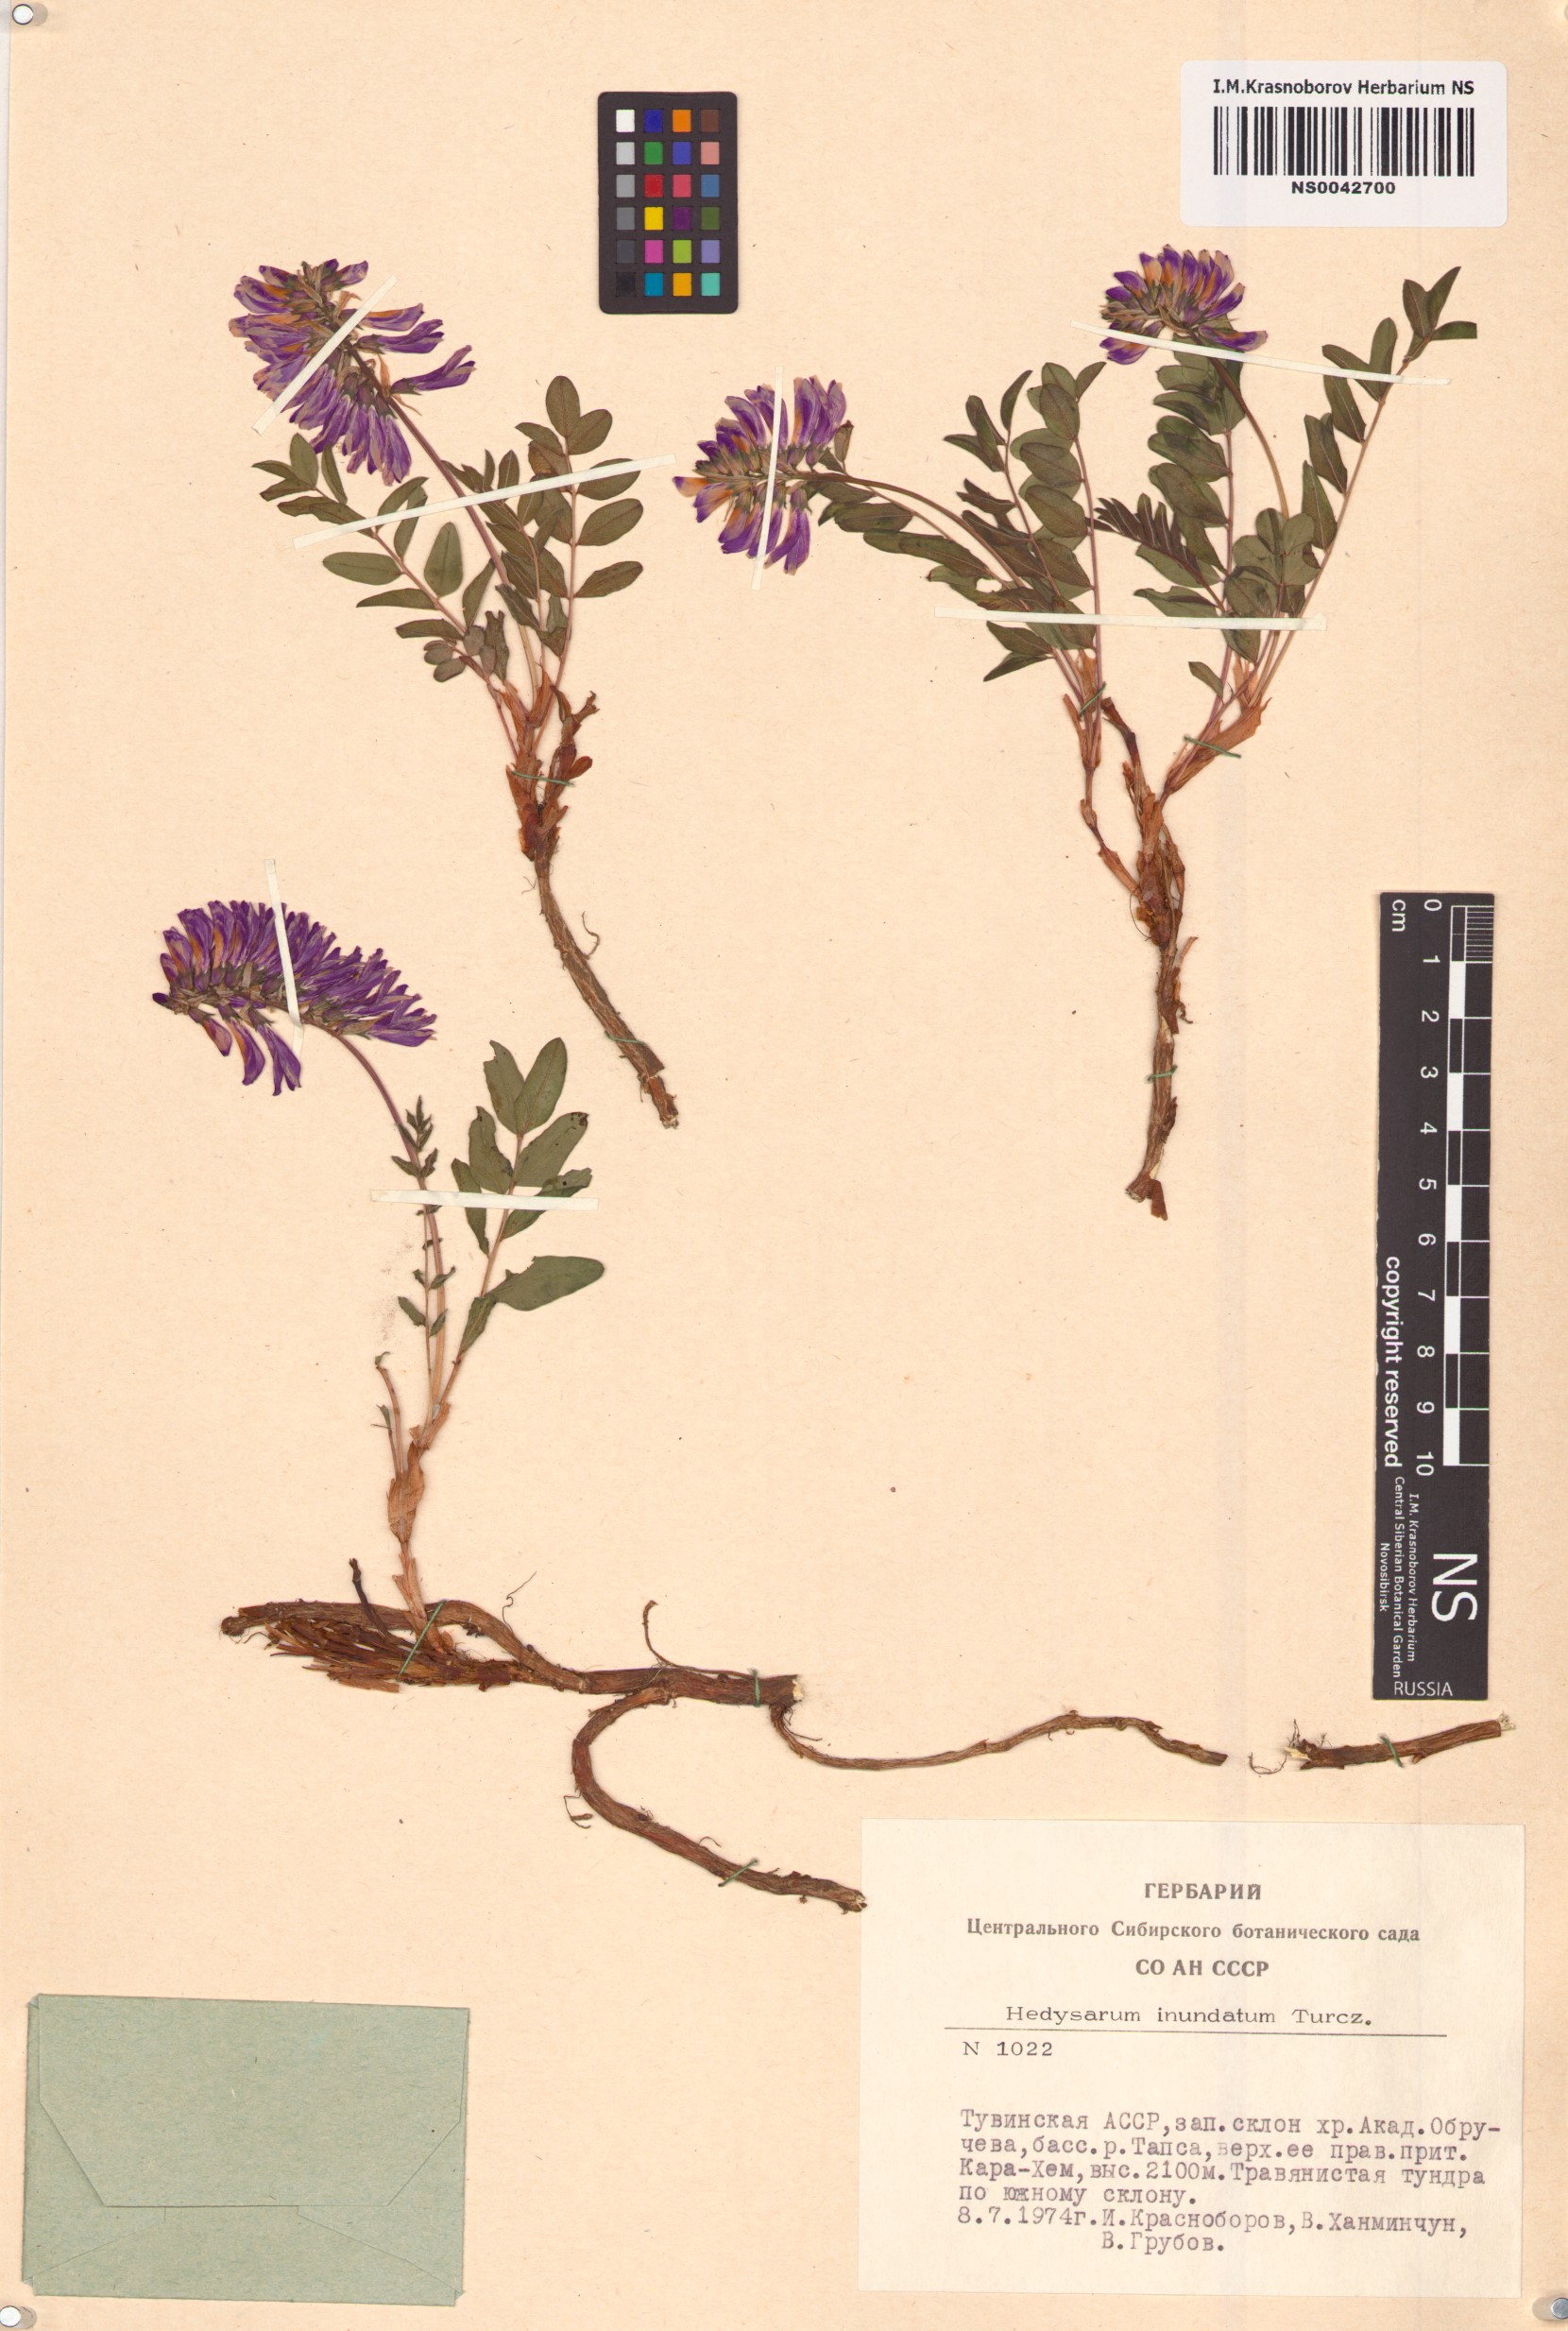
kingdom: Plantae
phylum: Tracheophyta
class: Magnoliopsida
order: Fabales
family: Fabaceae
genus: Hedysarum
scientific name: Hedysarum inundatum
